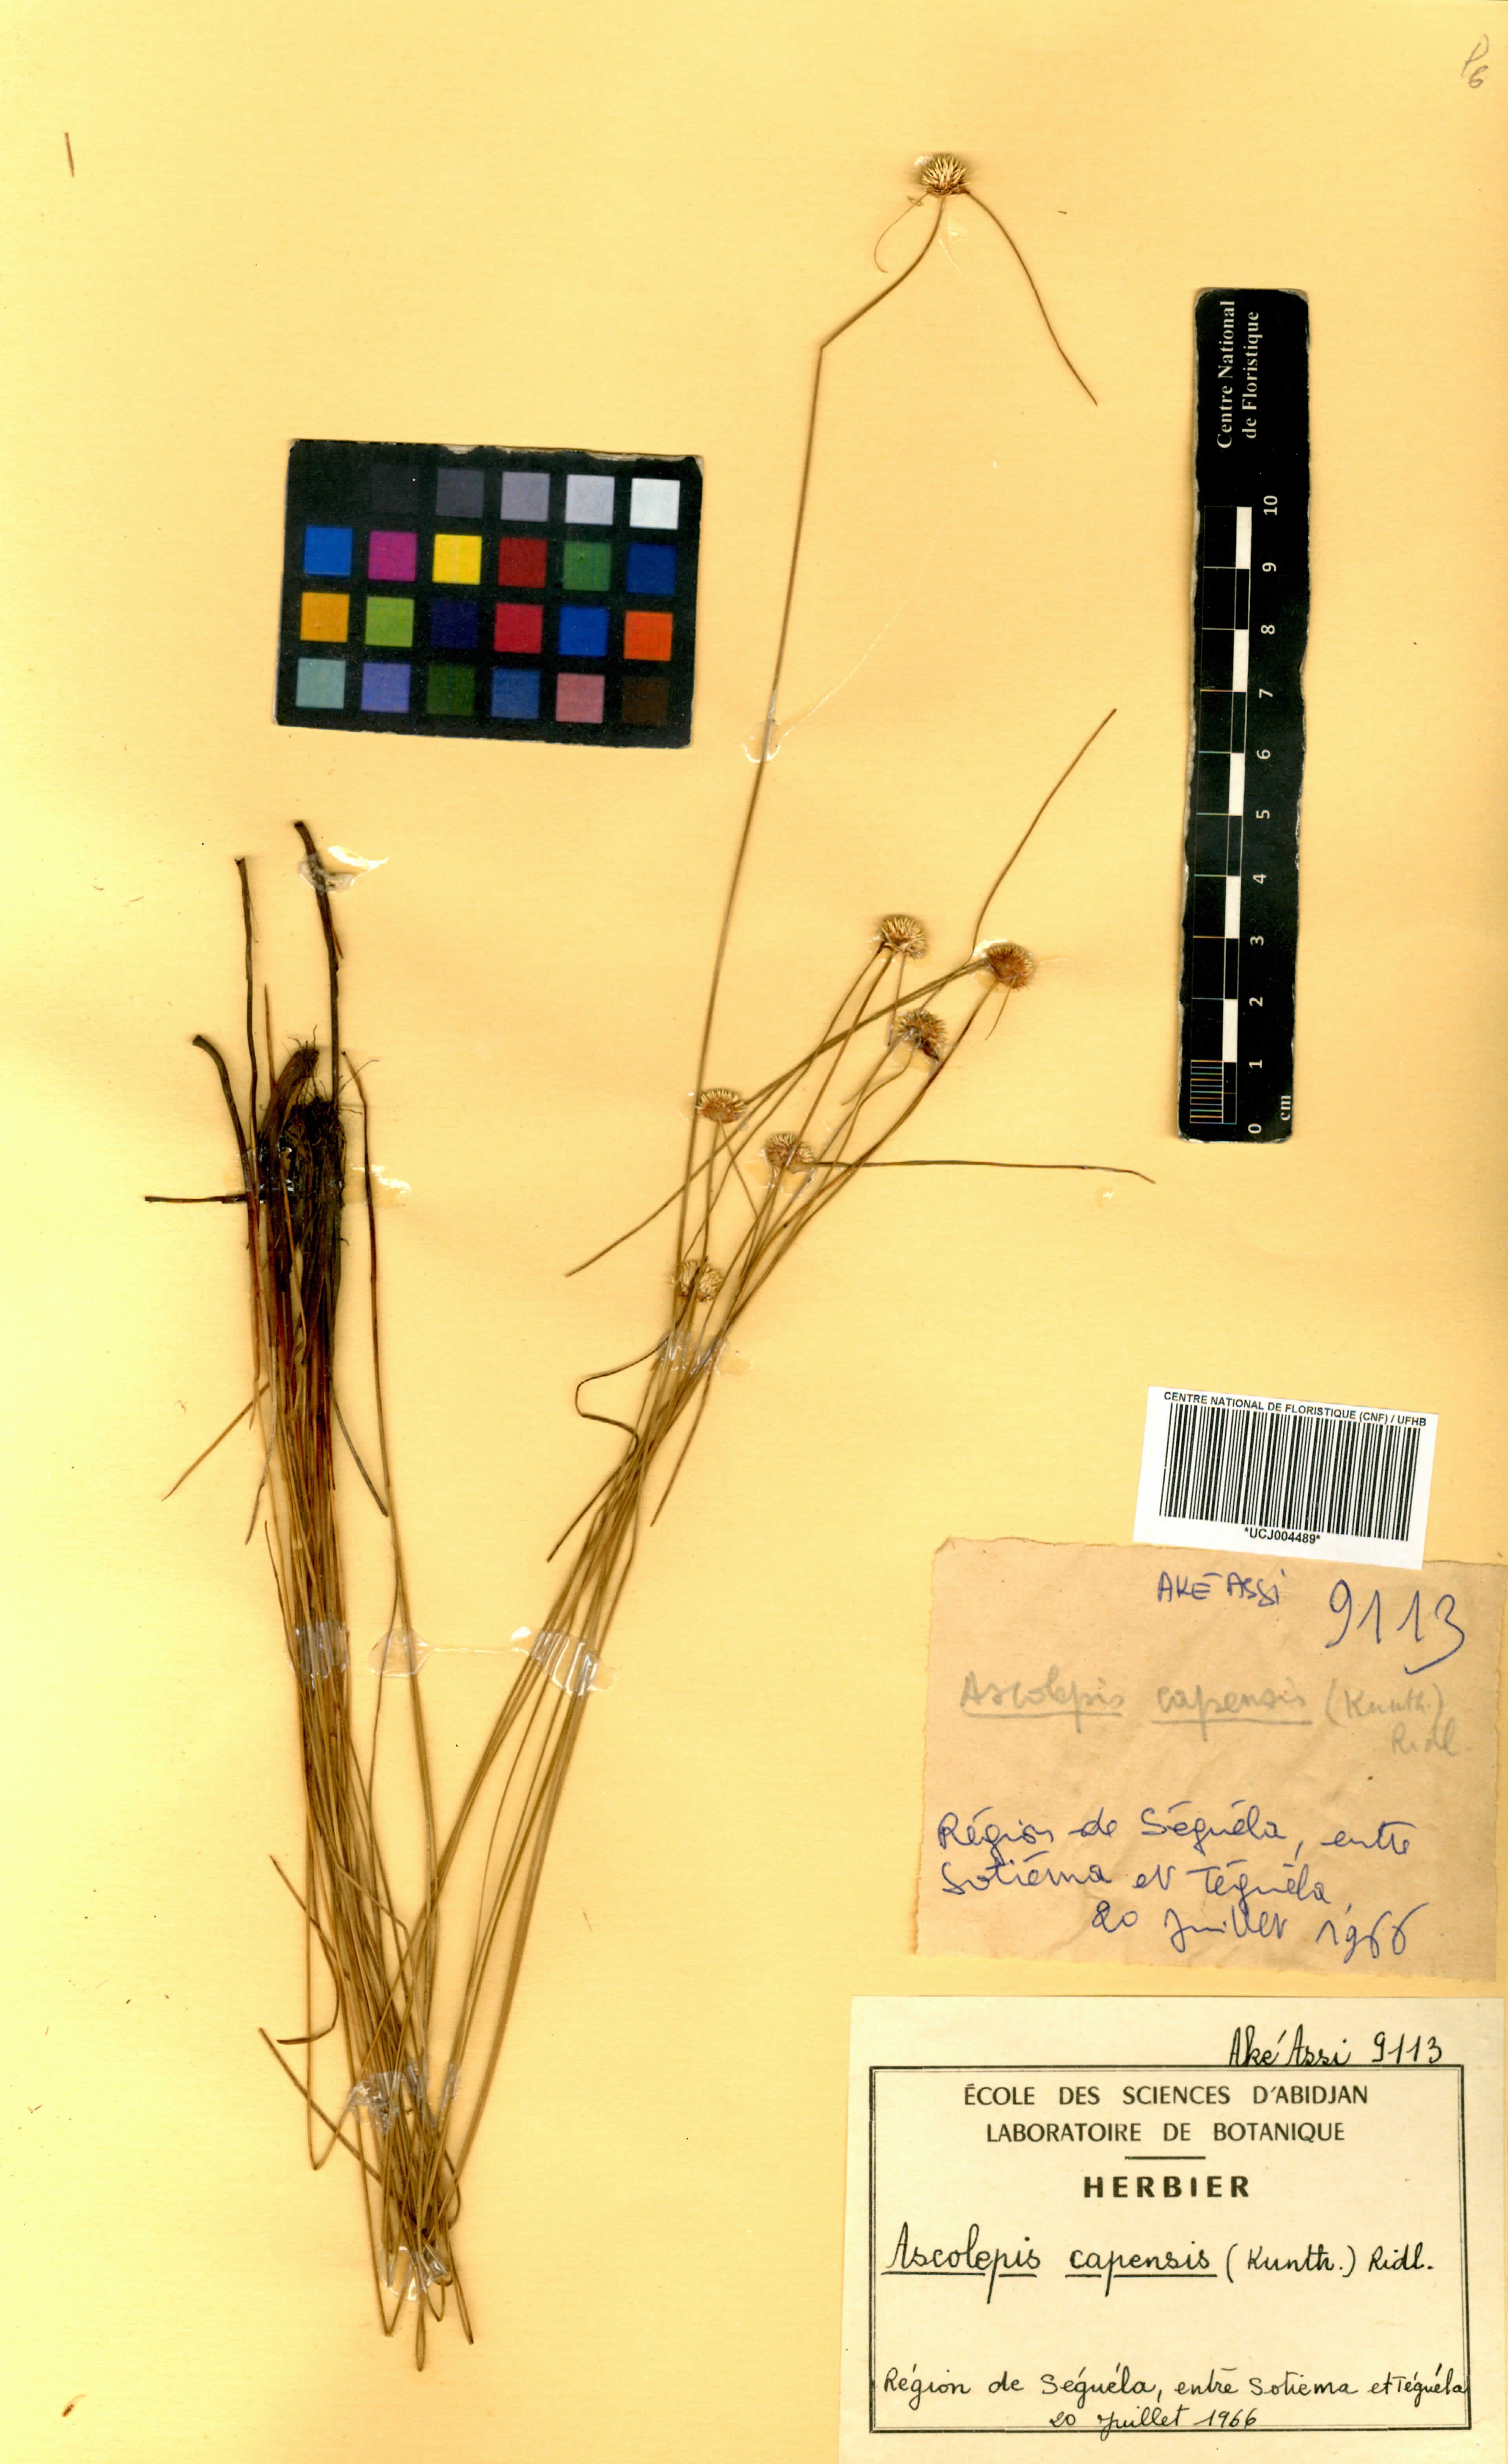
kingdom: Plantae
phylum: Tracheophyta
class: Liliopsida
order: Poales
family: Cyperaceae
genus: Cyperus
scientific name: Cyperus ascocapensis
